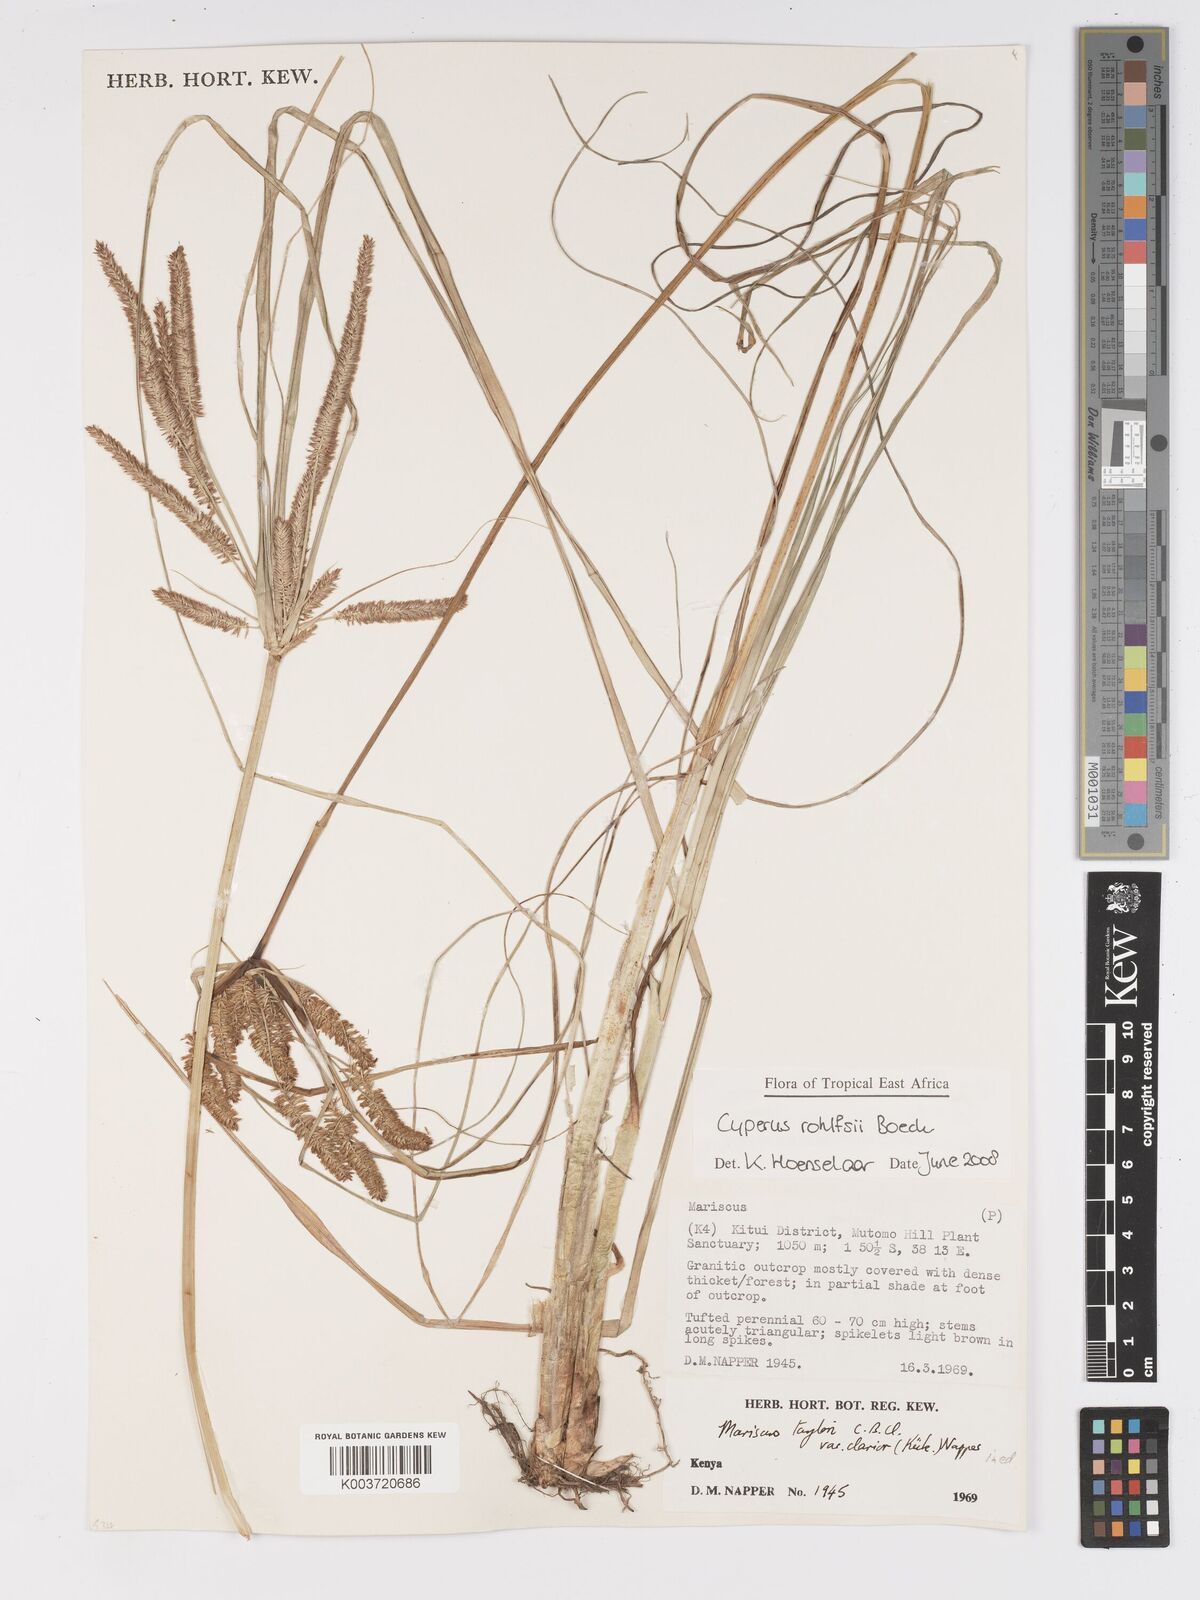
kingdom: Plantae
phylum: Tracheophyta
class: Liliopsida
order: Poales
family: Cyperaceae
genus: Cyperus
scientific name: Cyperus rohlfsii
